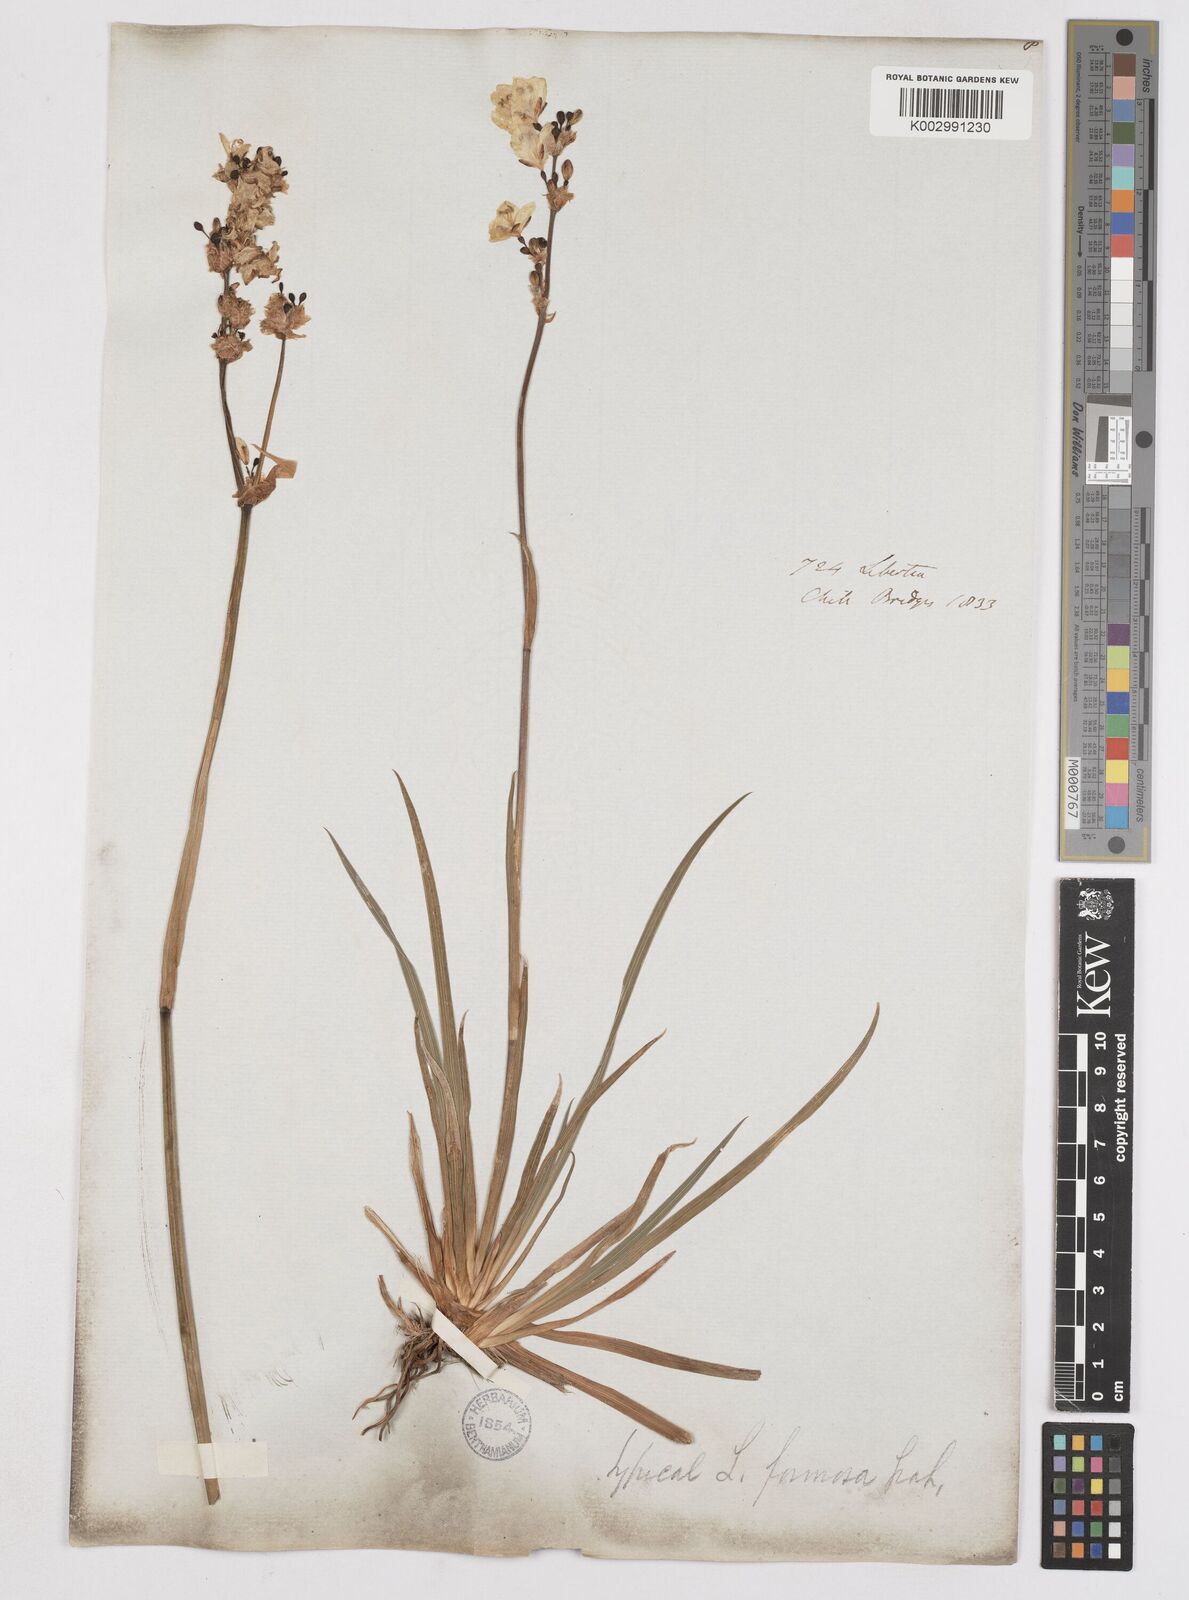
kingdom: Plantae
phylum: Tracheophyta
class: Liliopsida
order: Asparagales
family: Iridaceae
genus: Libertia
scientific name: Libertia chilensis
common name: Satin flower
